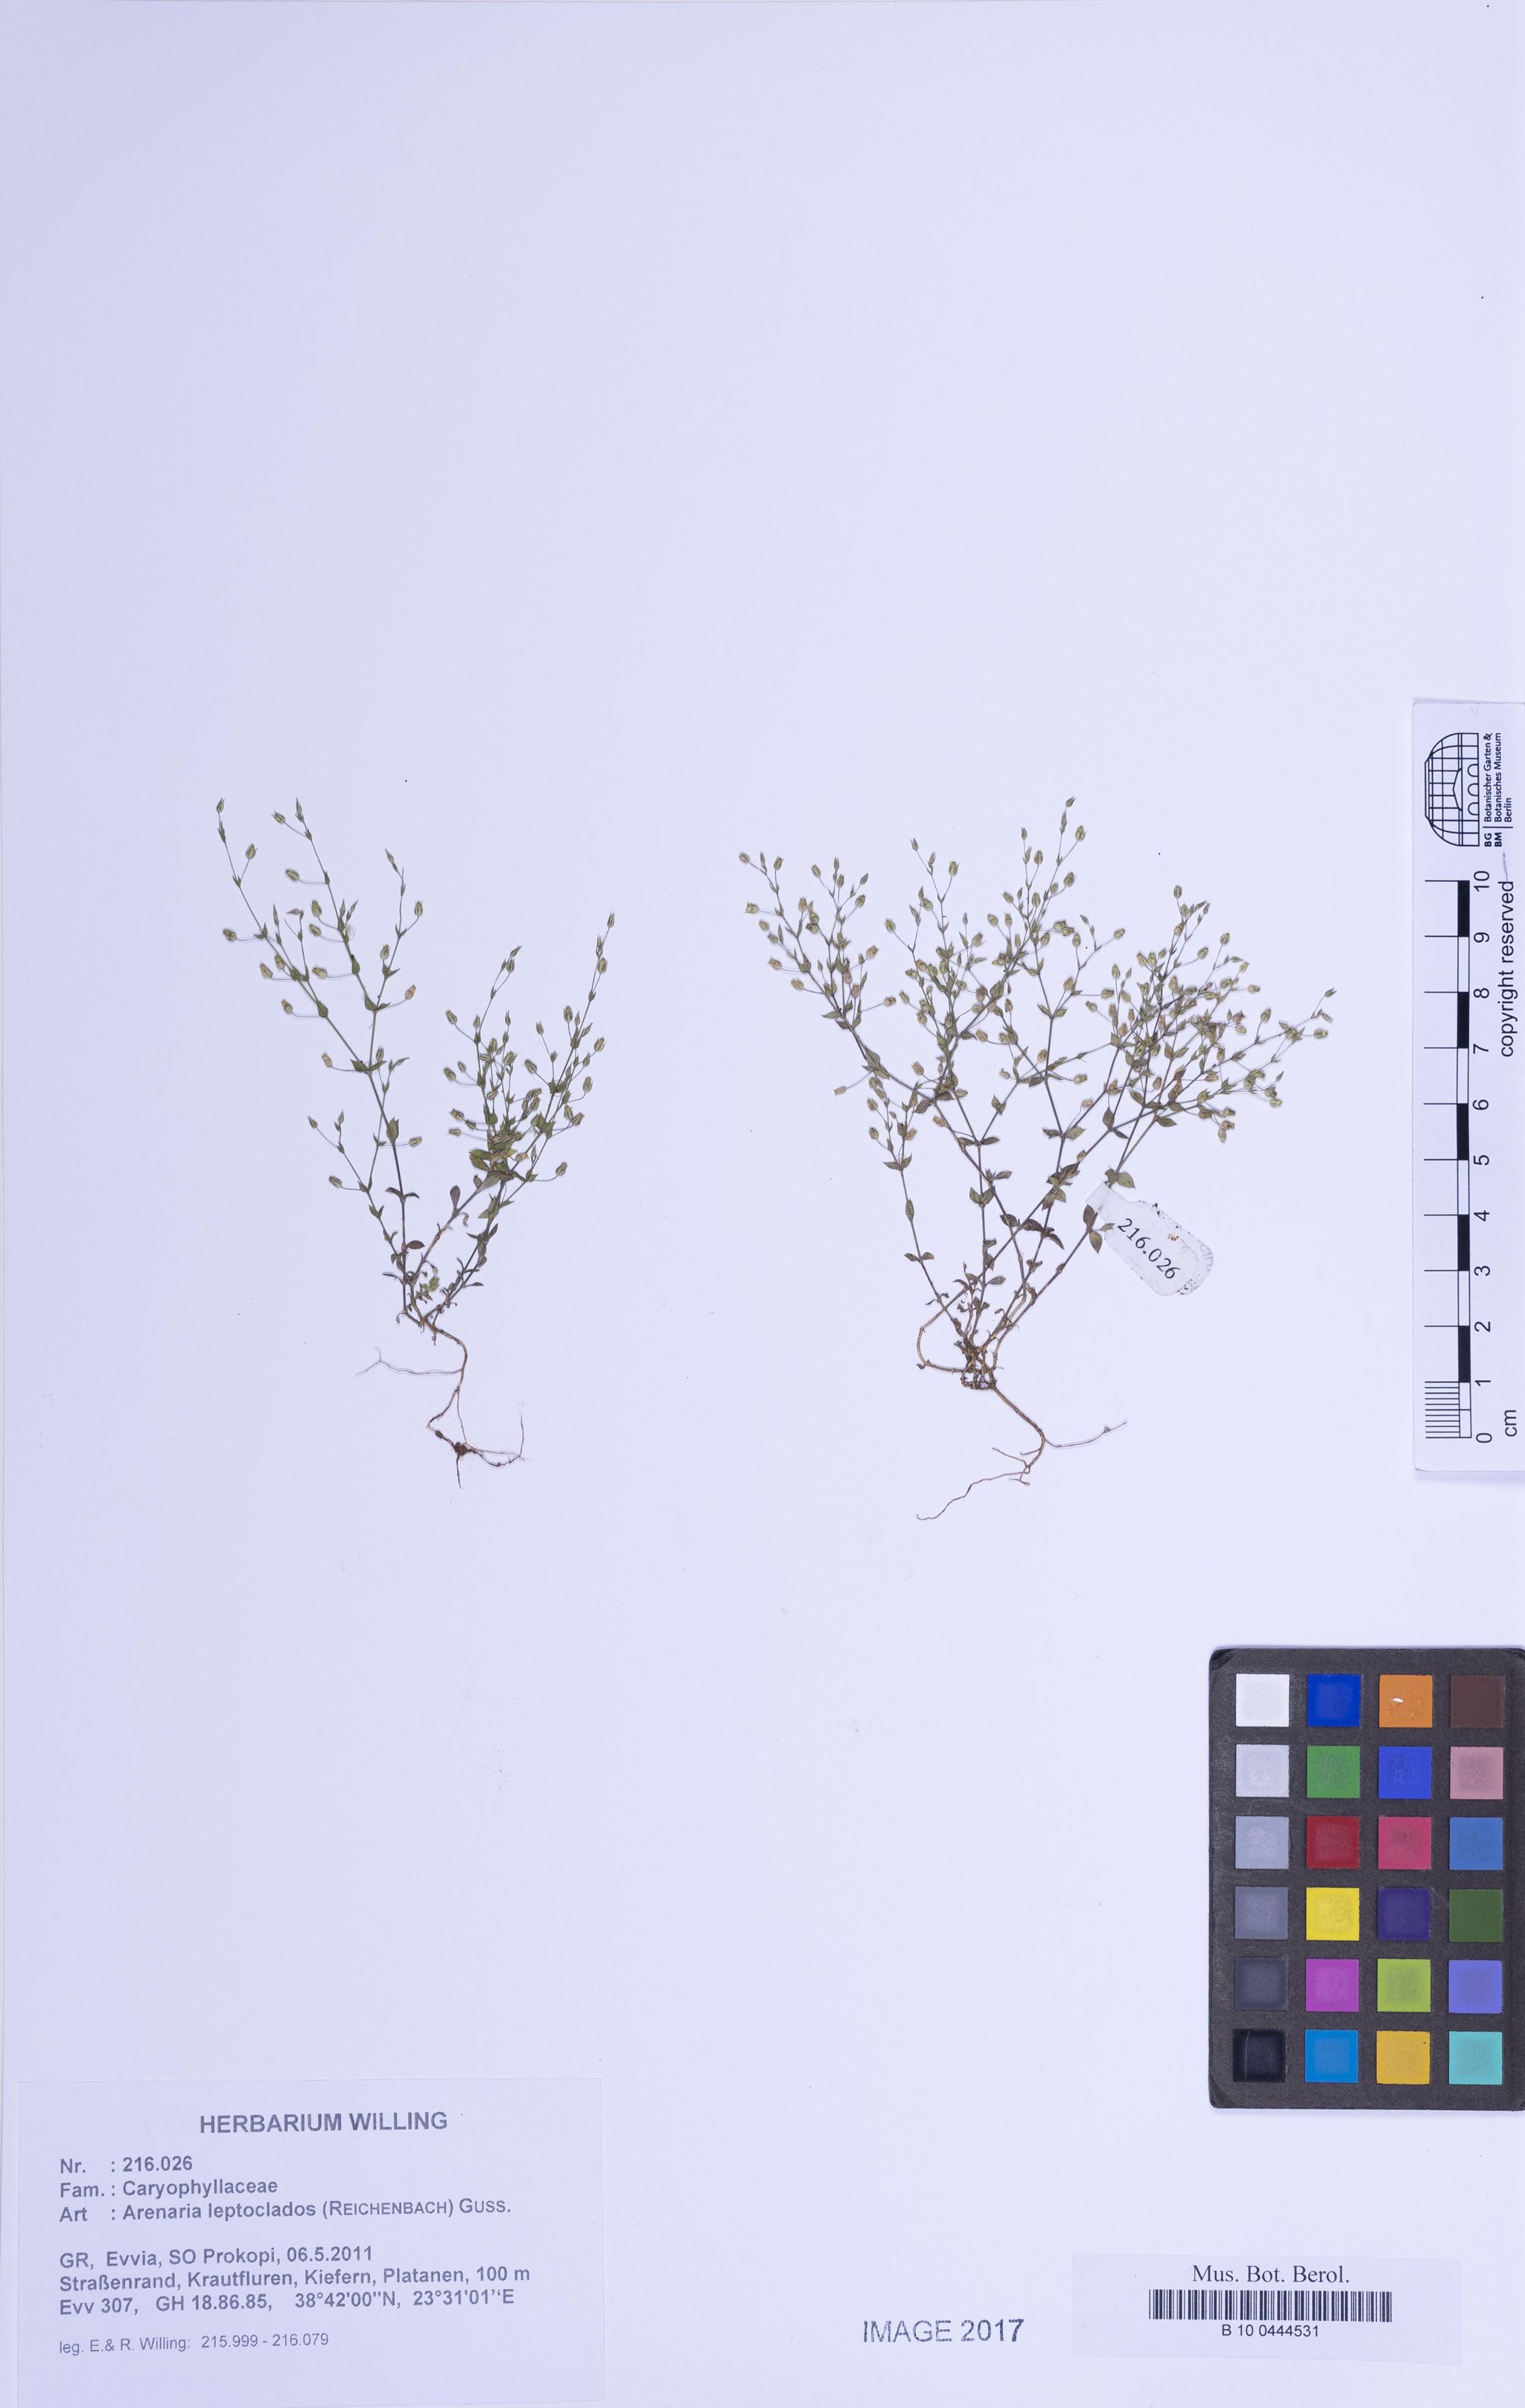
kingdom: Plantae
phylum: Tracheophyta
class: Magnoliopsida
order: Caryophyllales
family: Caryophyllaceae
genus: Arenaria
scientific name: Arenaria leptoclados
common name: Thyme-leaved sandwort
